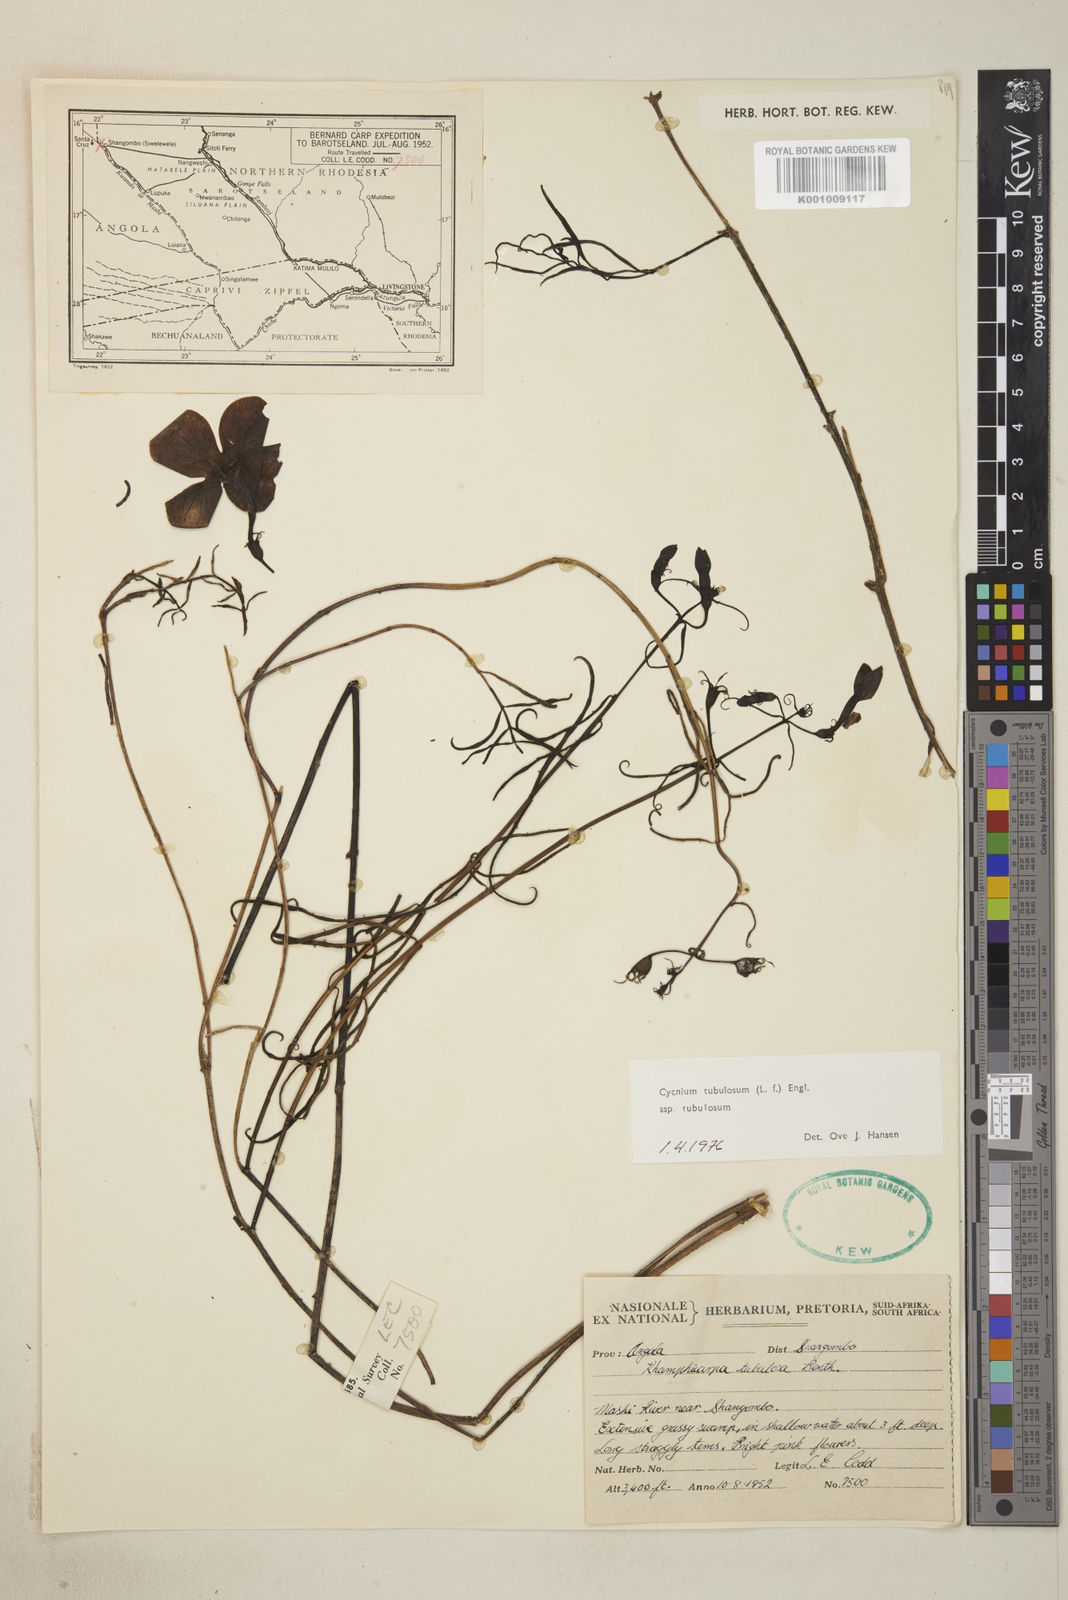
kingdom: Plantae
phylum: Tracheophyta
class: Magnoliopsida
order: Lamiales
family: Orobanchaceae
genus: Cycnium
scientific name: Cycnium tubulosum
